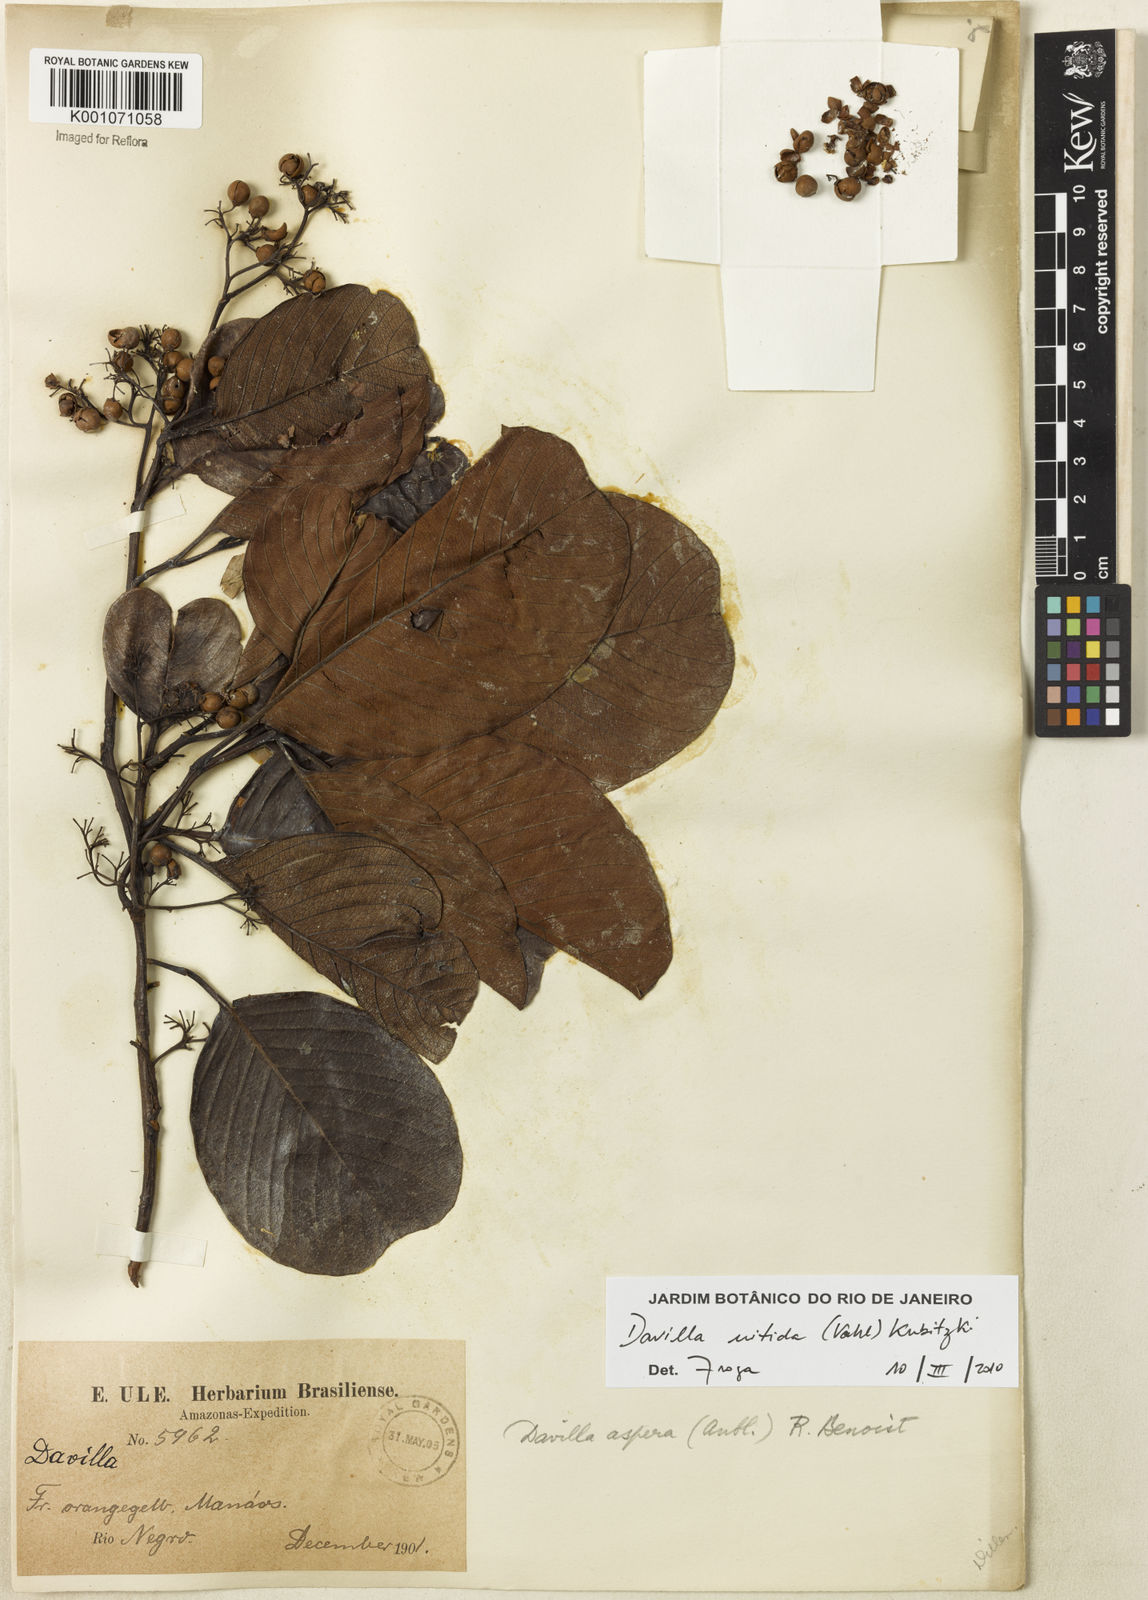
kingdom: Plantae
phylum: Tracheophyta
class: Magnoliopsida
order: Dilleniales
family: Dilleniaceae
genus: Davilla
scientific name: Davilla kunthii
